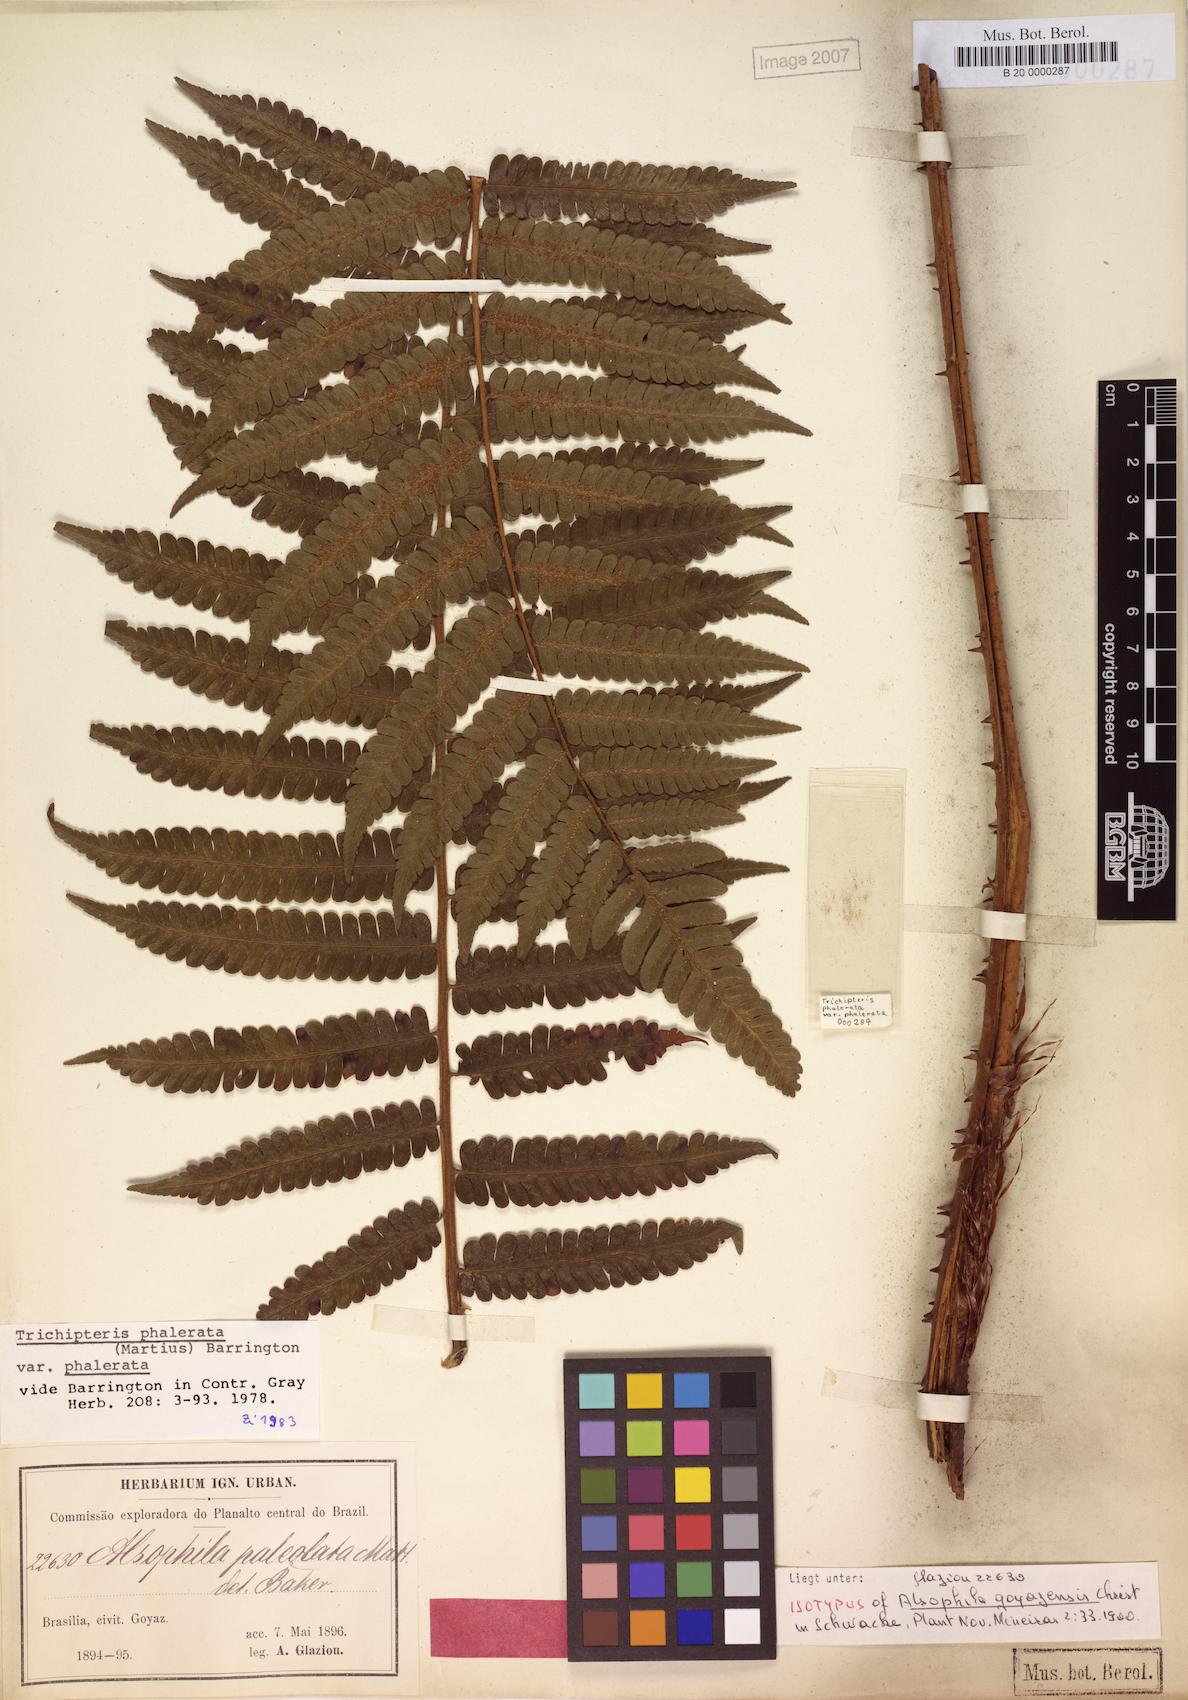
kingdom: Plantae
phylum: Tracheophyta
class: Polypodiopsida
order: Cyatheales
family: Cyatheaceae
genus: Cyathea
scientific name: Cyathea phalerata
